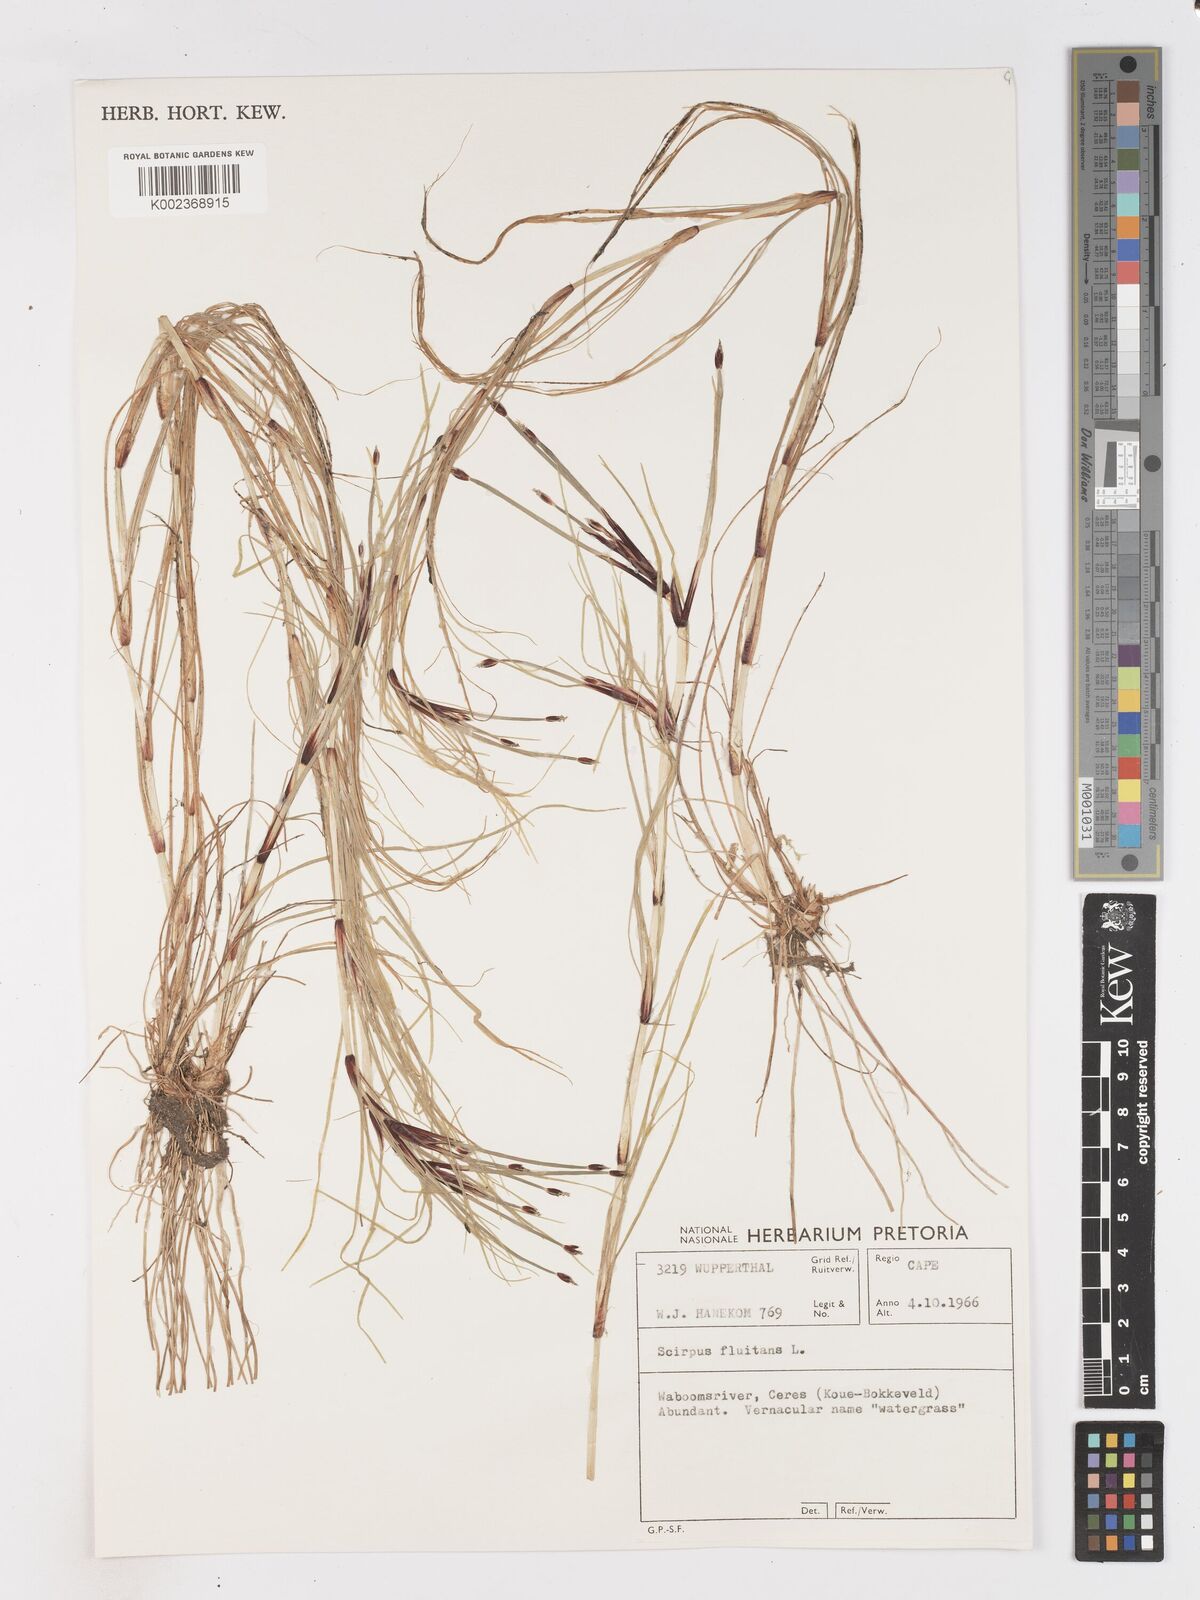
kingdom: Plantae
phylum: Tracheophyta
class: Liliopsida
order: Poales
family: Cyperaceae
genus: Isolepis
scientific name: Isolepis fluitans
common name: Floating club-rush
